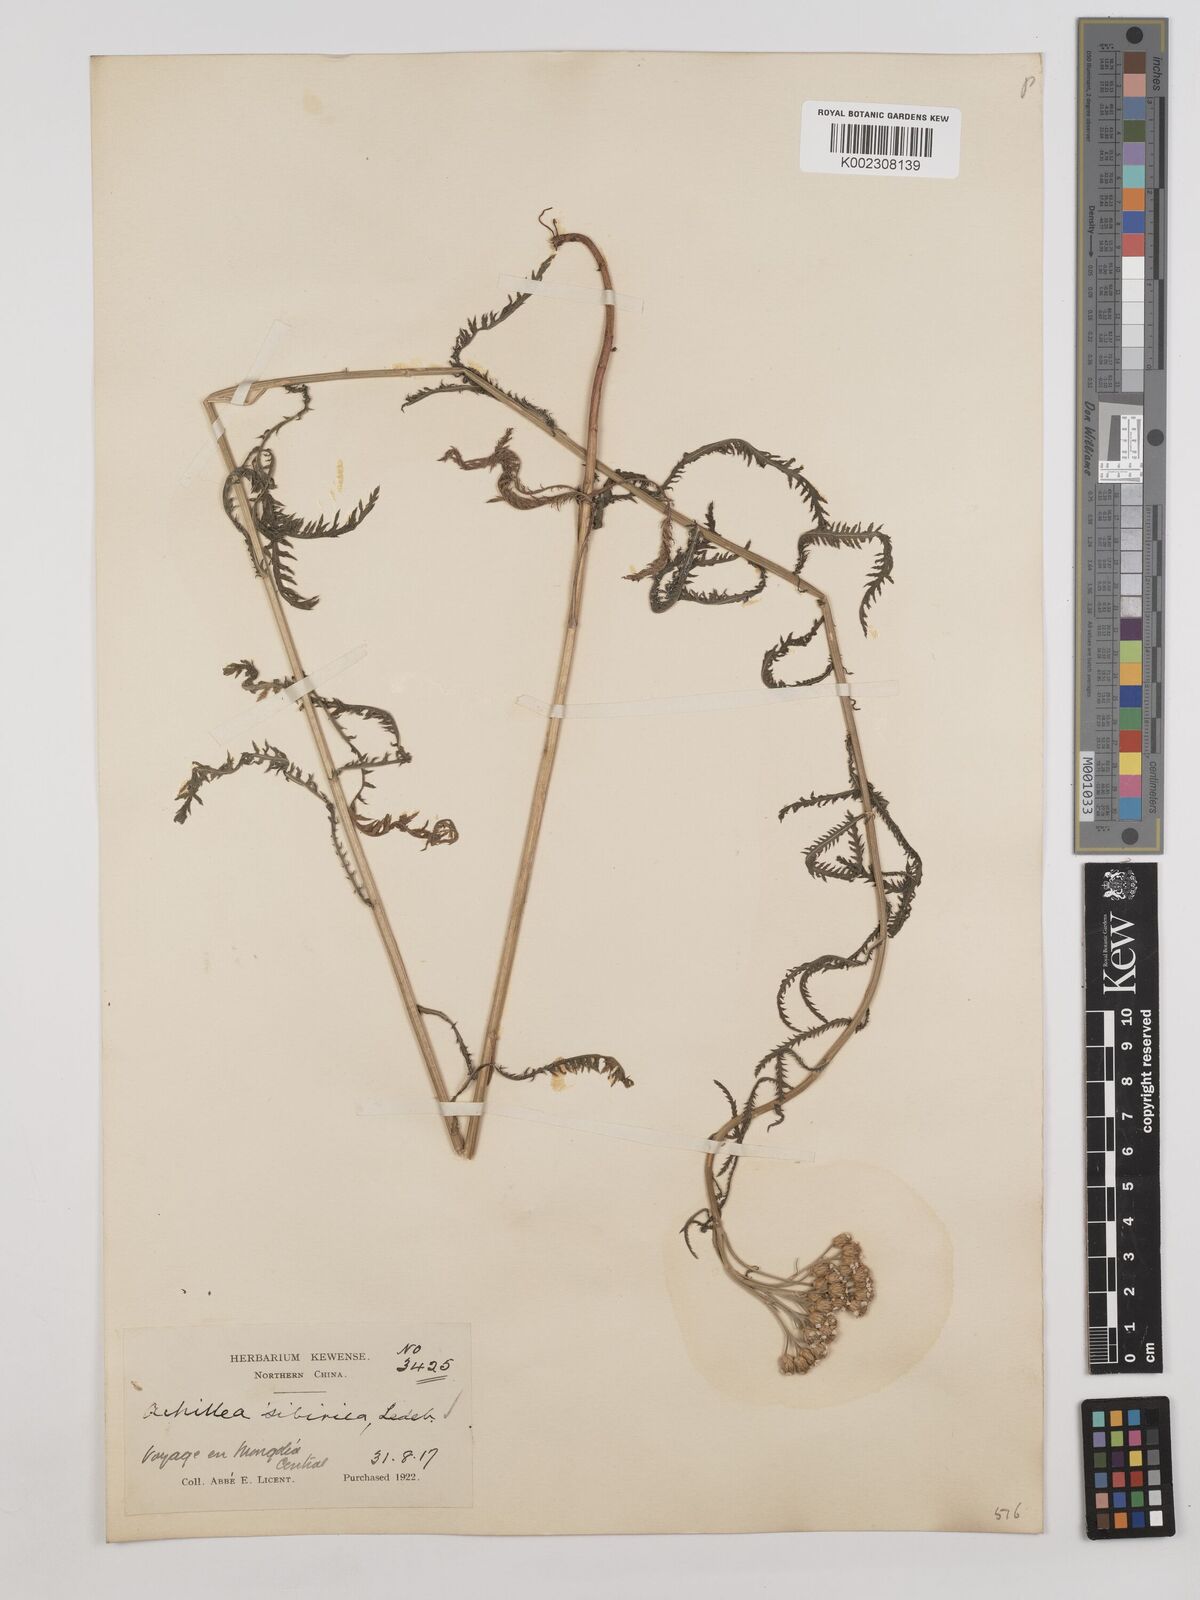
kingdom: Plantae
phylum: Tracheophyta
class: Magnoliopsida
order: Asterales
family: Asteraceae
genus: Achillea
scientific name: Achillea alpina
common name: Siberian yarrow
